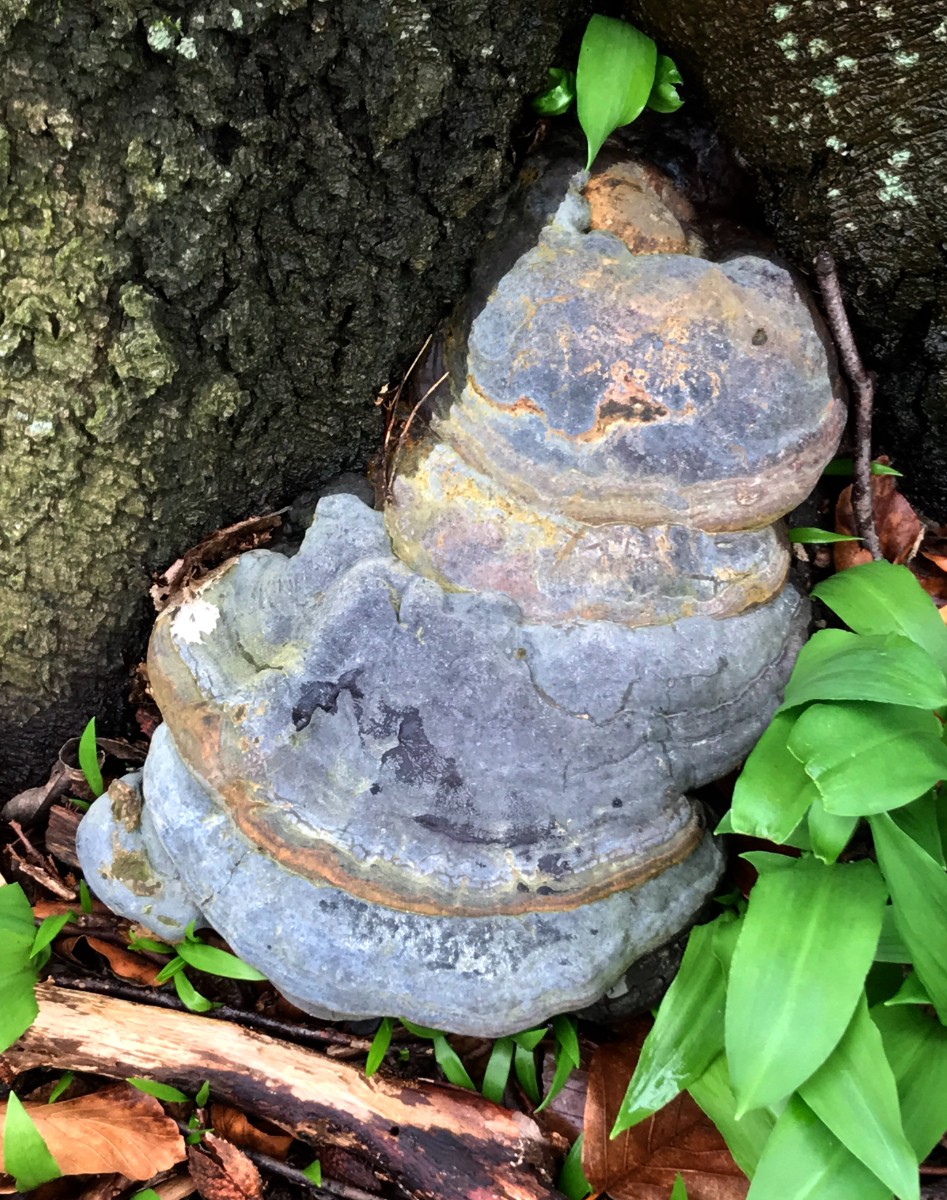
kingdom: Fungi
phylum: Basidiomycota
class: Agaricomycetes
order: Polyporales
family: Polyporaceae
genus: Ganoderma
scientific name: Ganoderma pfeifferi
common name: kobberrød lakporesvamp
